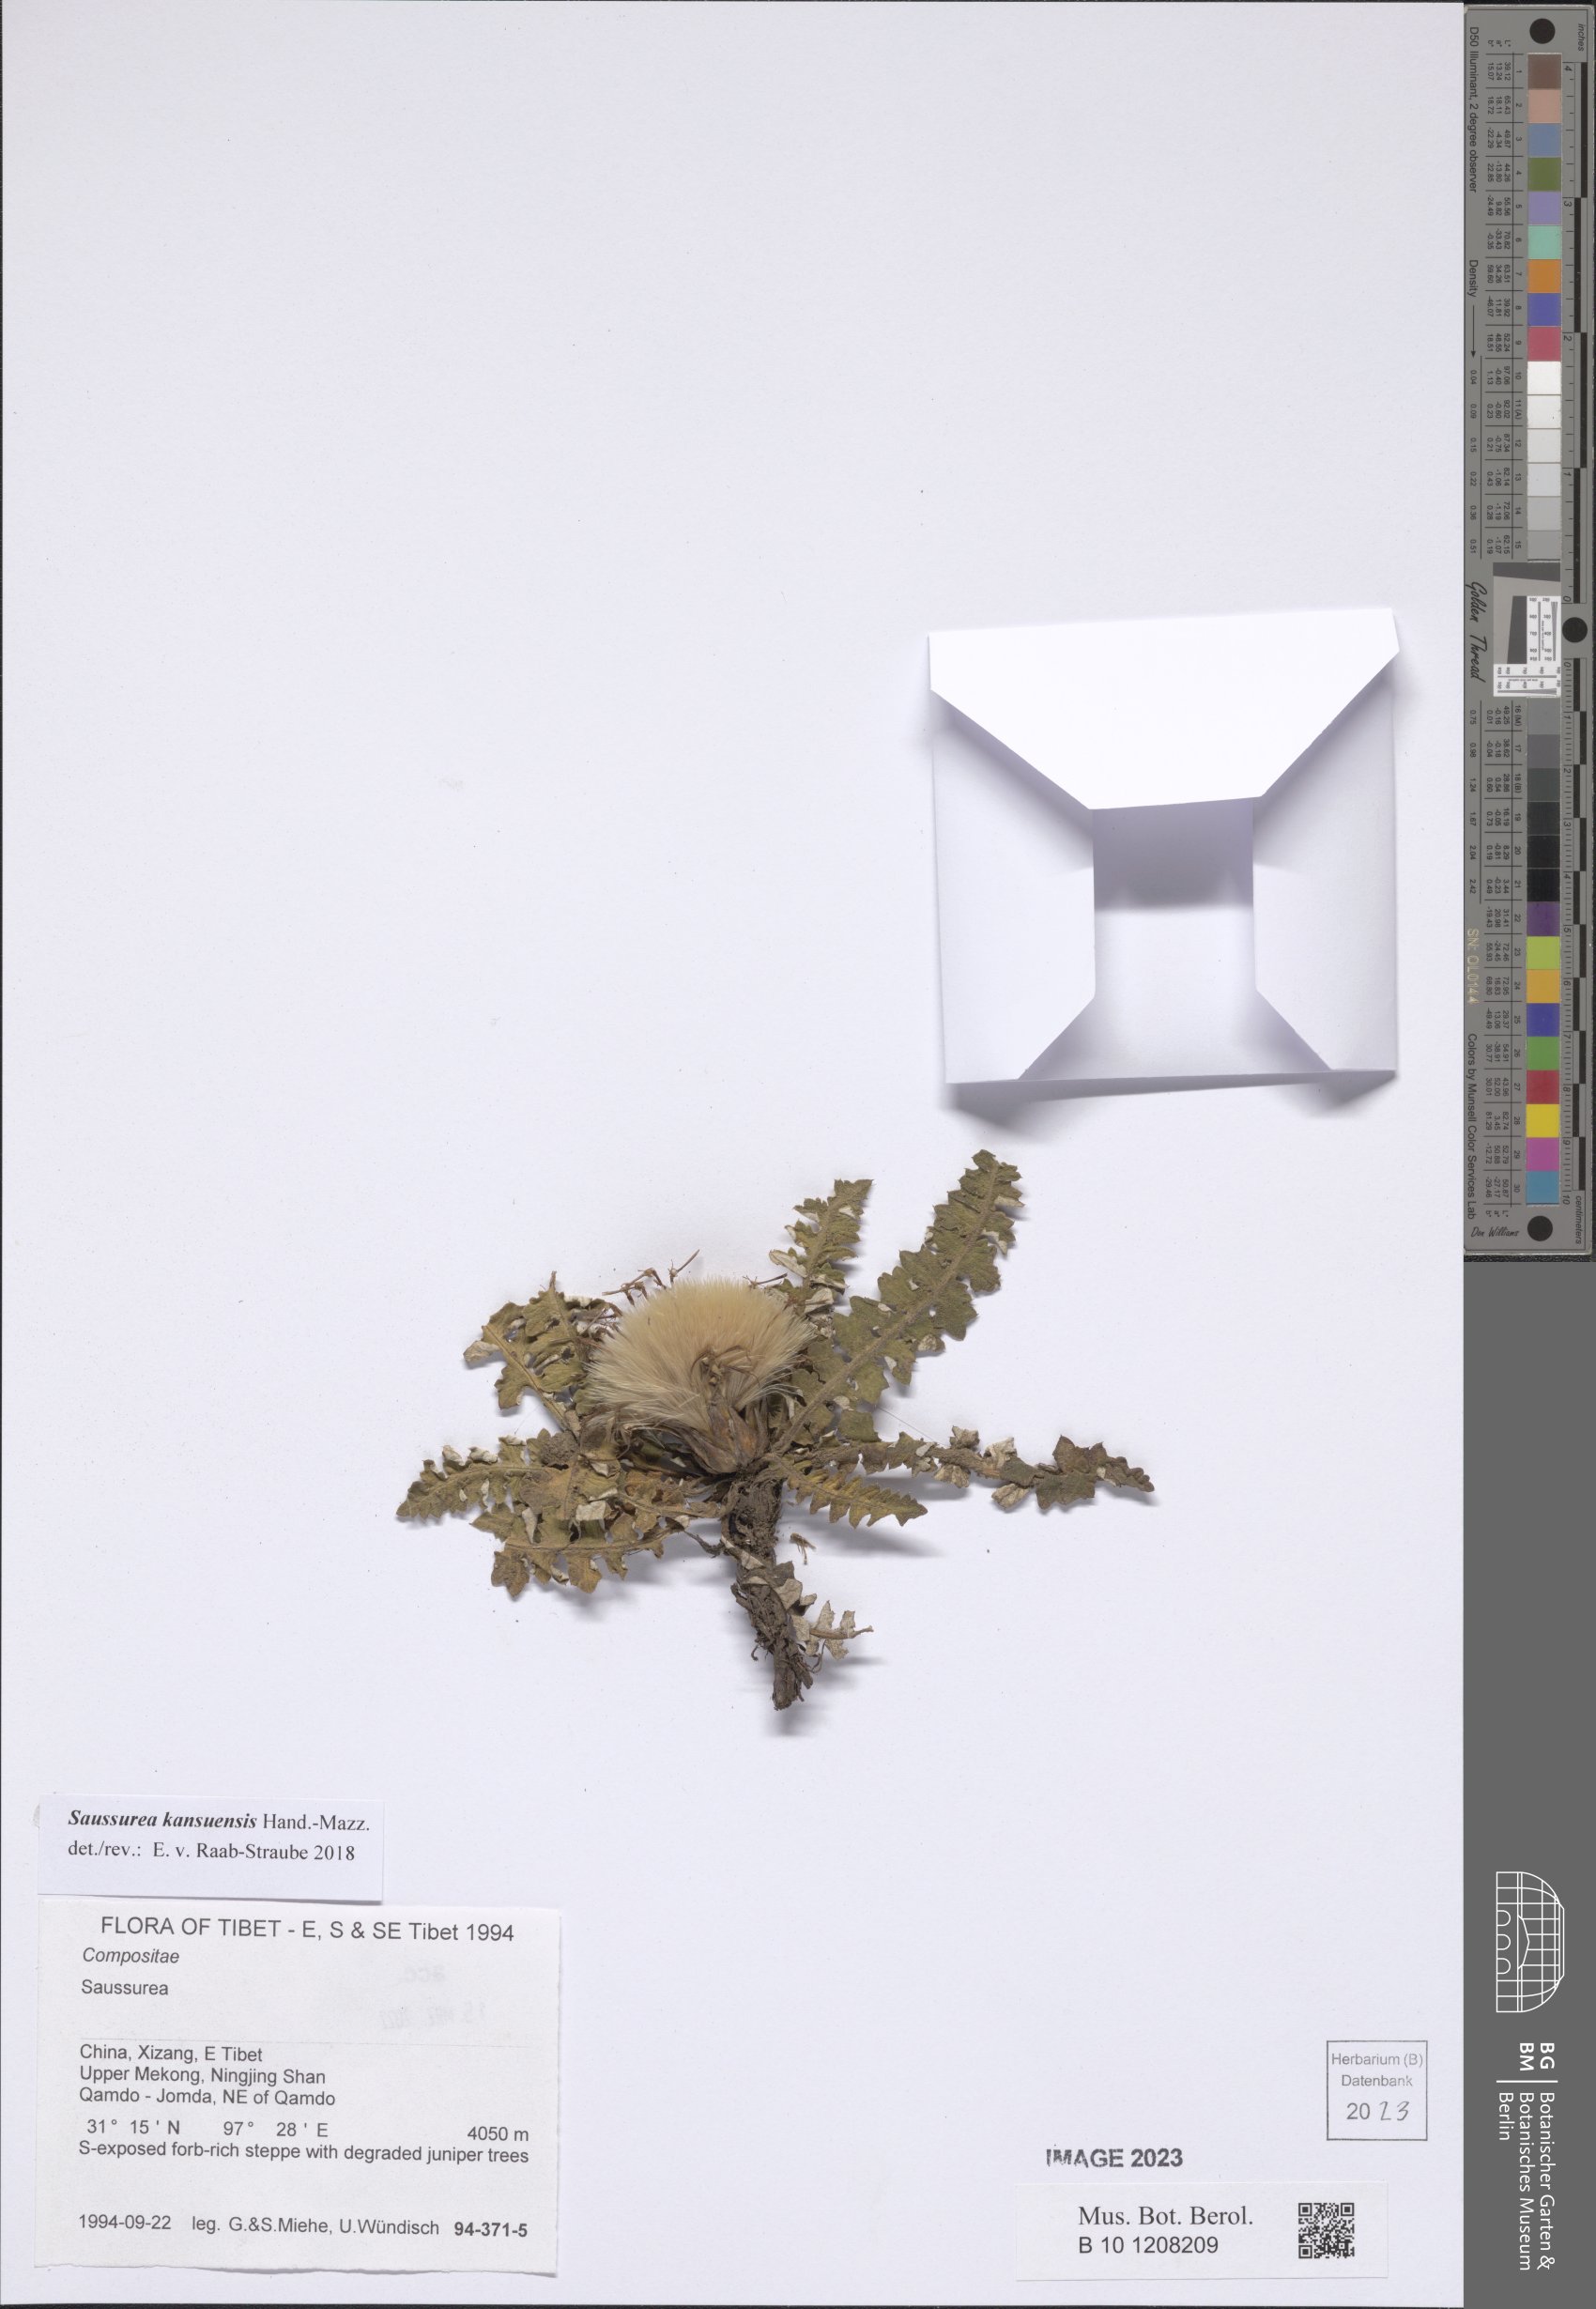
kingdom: Plantae
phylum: Tracheophyta
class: Magnoliopsida
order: Asterales
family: Asteraceae
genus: Saussurea
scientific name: Saussurea kansuensis
